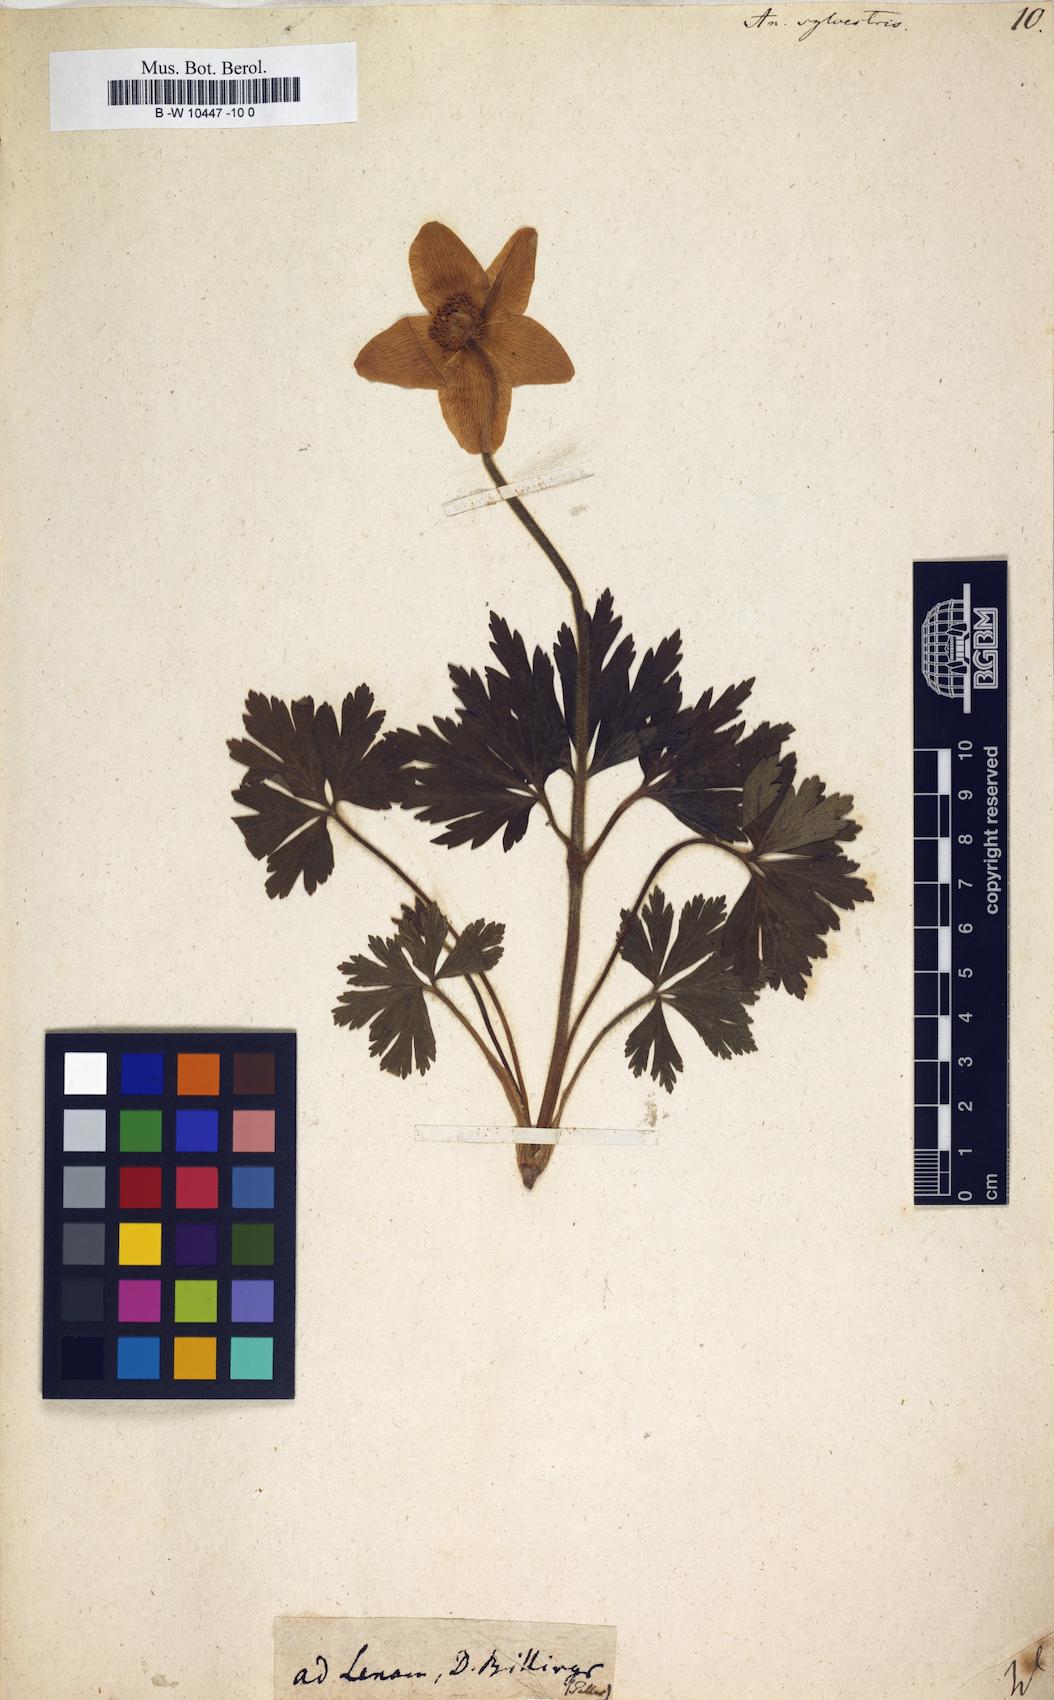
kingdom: Plantae
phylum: Tracheophyta
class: Magnoliopsida
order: Ranunculales
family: Ranunculaceae
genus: Anemone
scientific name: Anemone sylvestris
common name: Snowdrop anemone
